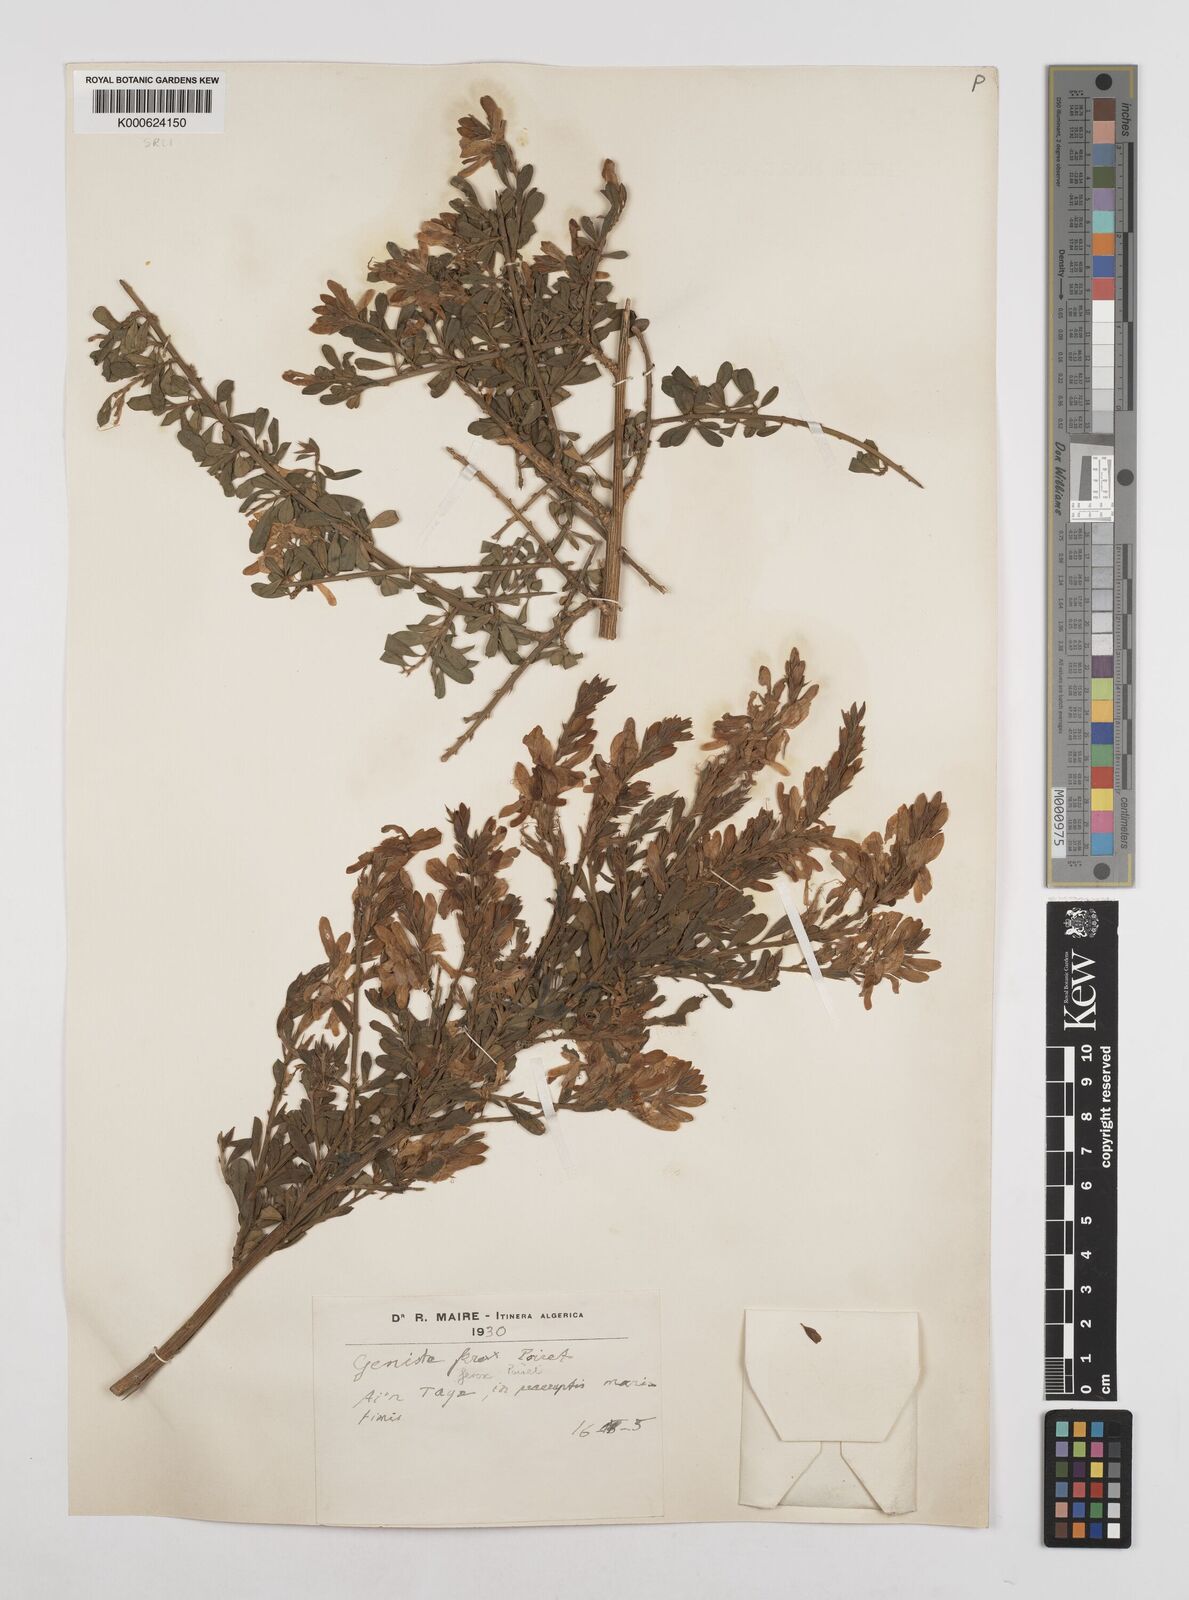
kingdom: Plantae
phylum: Tracheophyta
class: Magnoliopsida
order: Fabales
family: Fabaceae
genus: Genista
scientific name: Genista ferox
